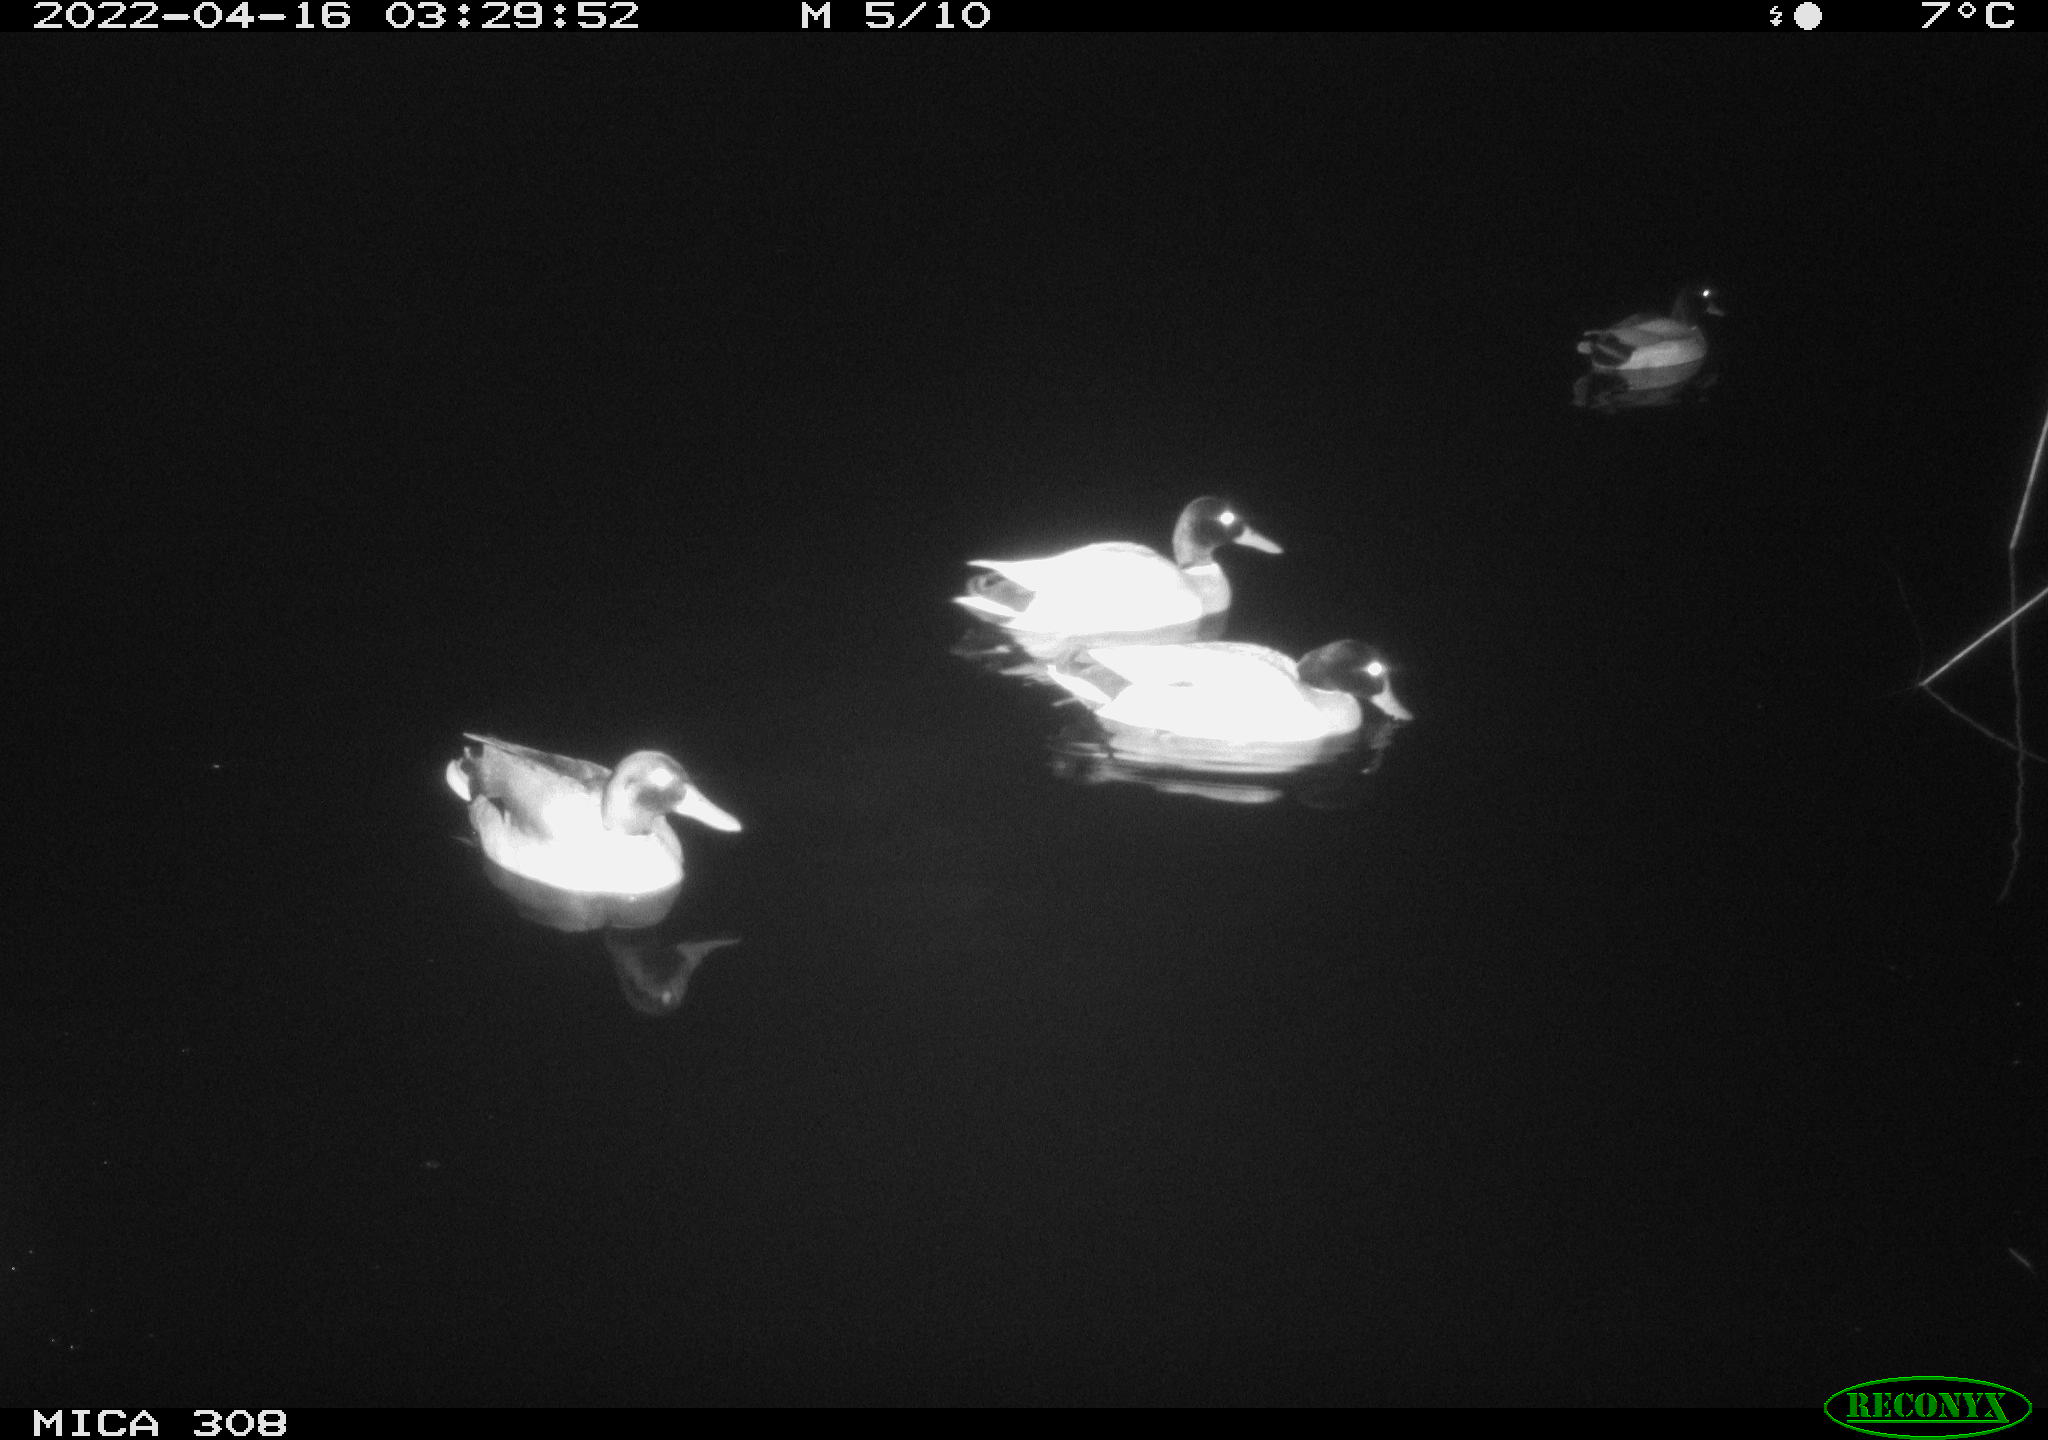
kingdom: Animalia
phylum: Chordata
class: Aves
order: Anseriformes
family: Anatidae
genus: Anas
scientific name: Anas platyrhynchos
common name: Mallard
